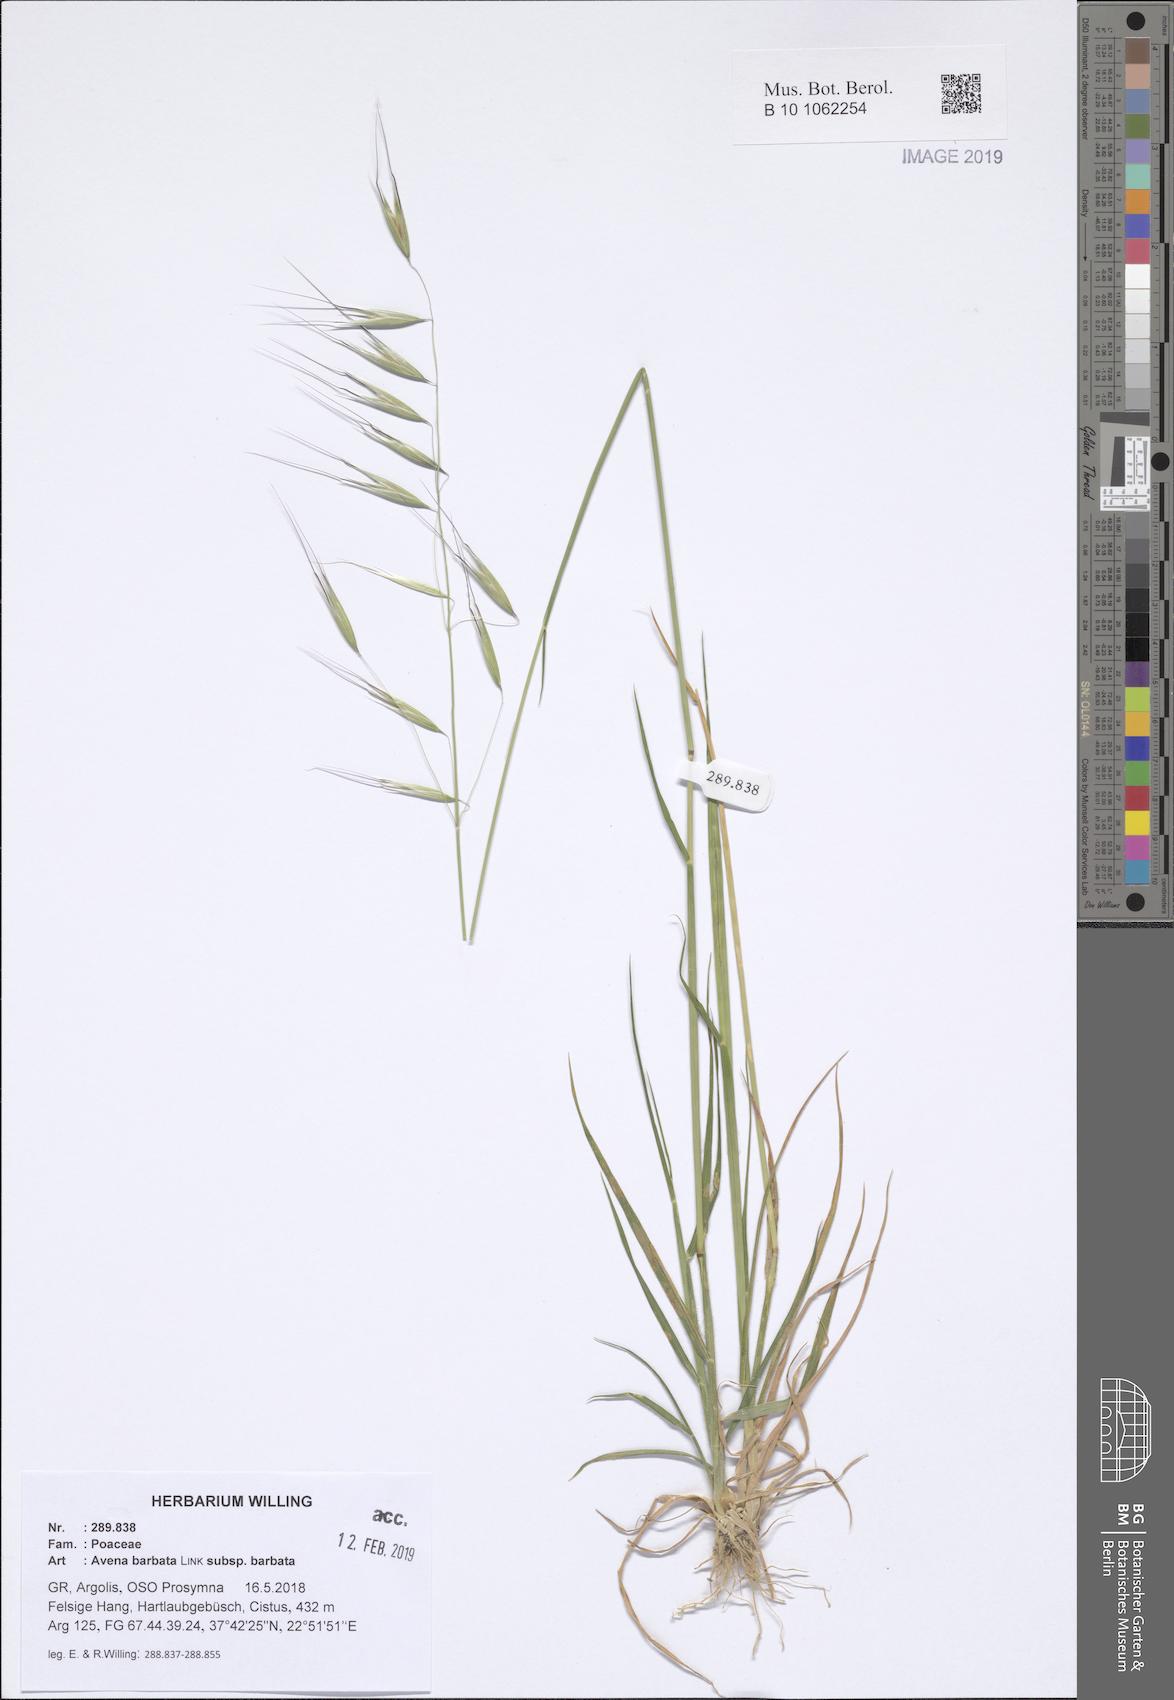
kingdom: Plantae
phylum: Tracheophyta
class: Liliopsida
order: Poales
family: Poaceae
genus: Avena
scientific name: Avena barbata
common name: Slender oat
